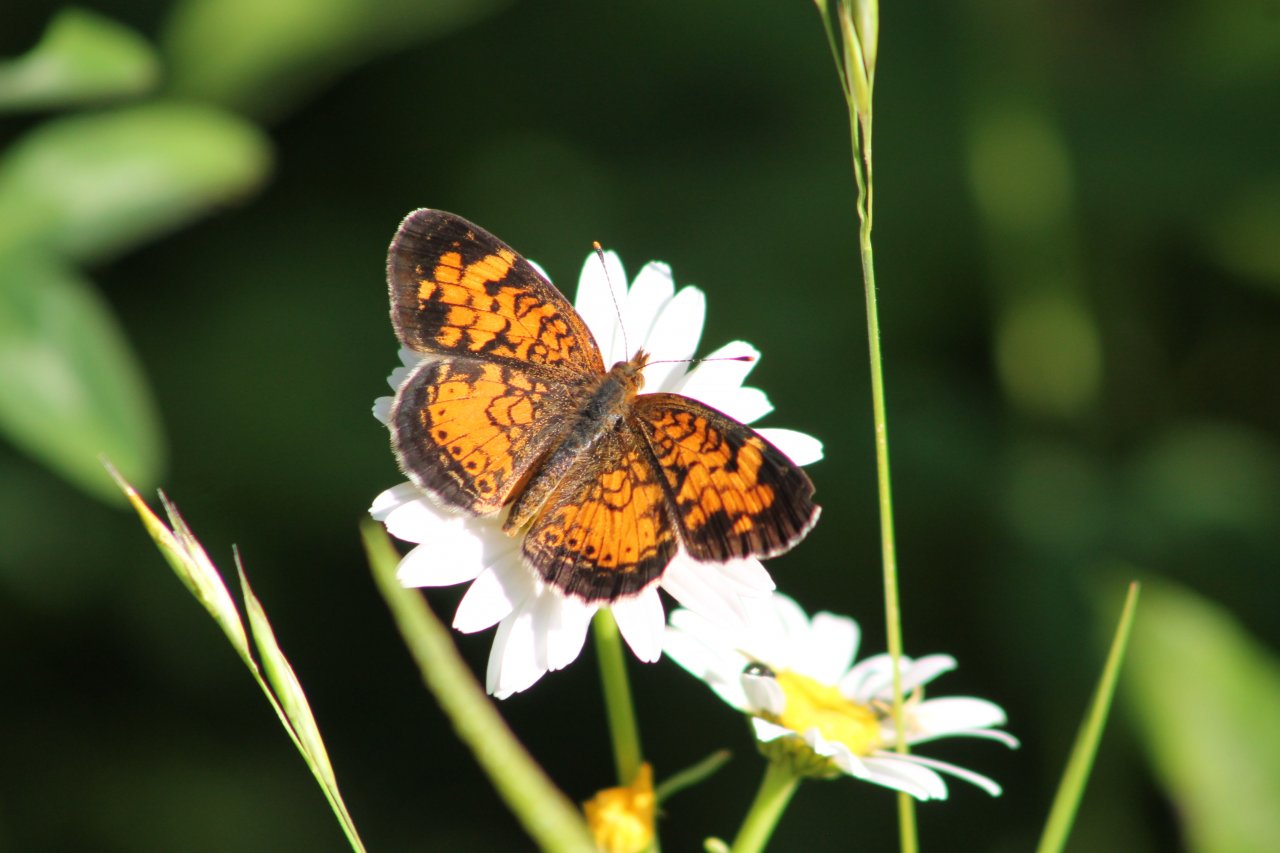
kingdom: Animalia
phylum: Arthropoda
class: Insecta
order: Lepidoptera
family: Nymphalidae
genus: Phyciodes
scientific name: Phyciodes tharos
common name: Northern Crescent
